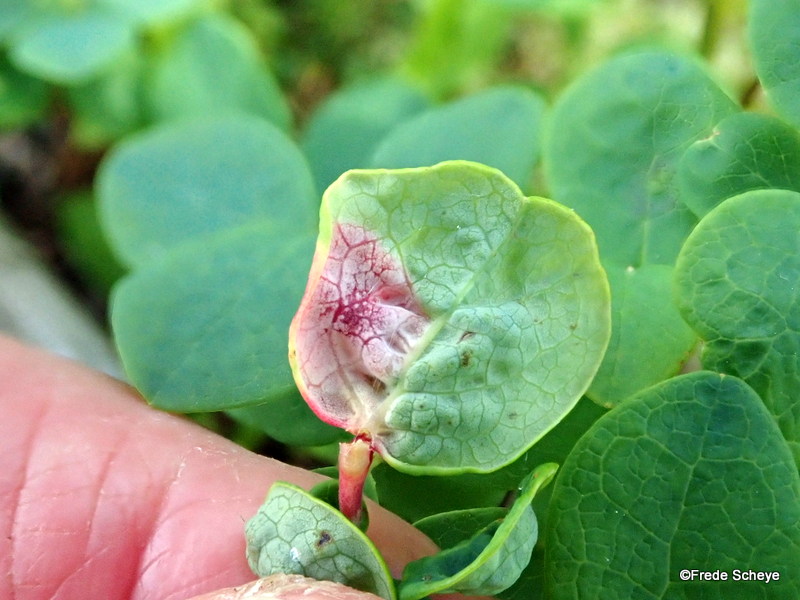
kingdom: Fungi
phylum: Basidiomycota
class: Exobasidiomycetes
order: Exobasidiales
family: Exobasidiaceae
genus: Exobasidium
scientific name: Exobasidium vaccinii
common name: tyttebærblad-bøllesvamp
